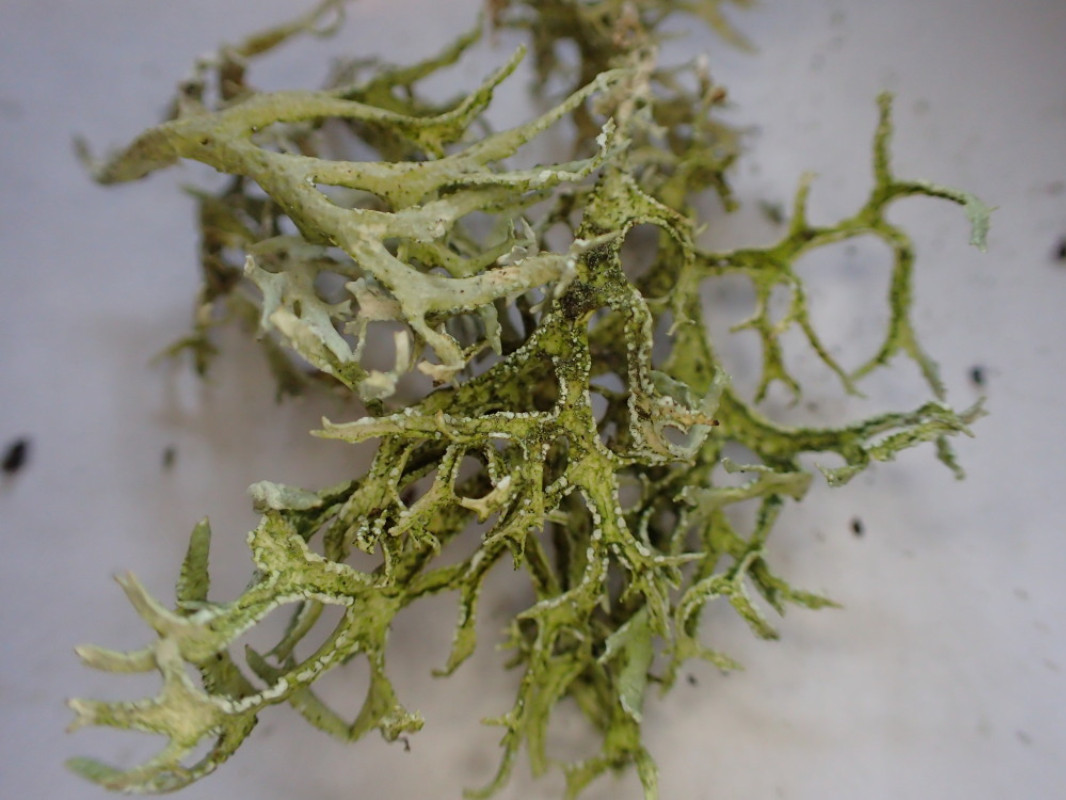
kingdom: Fungi
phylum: Ascomycota
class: Lecanoromycetes
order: Lecanorales
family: Parmeliaceae
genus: Evernia
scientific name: Evernia prunastri
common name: almindelig slåenlav
